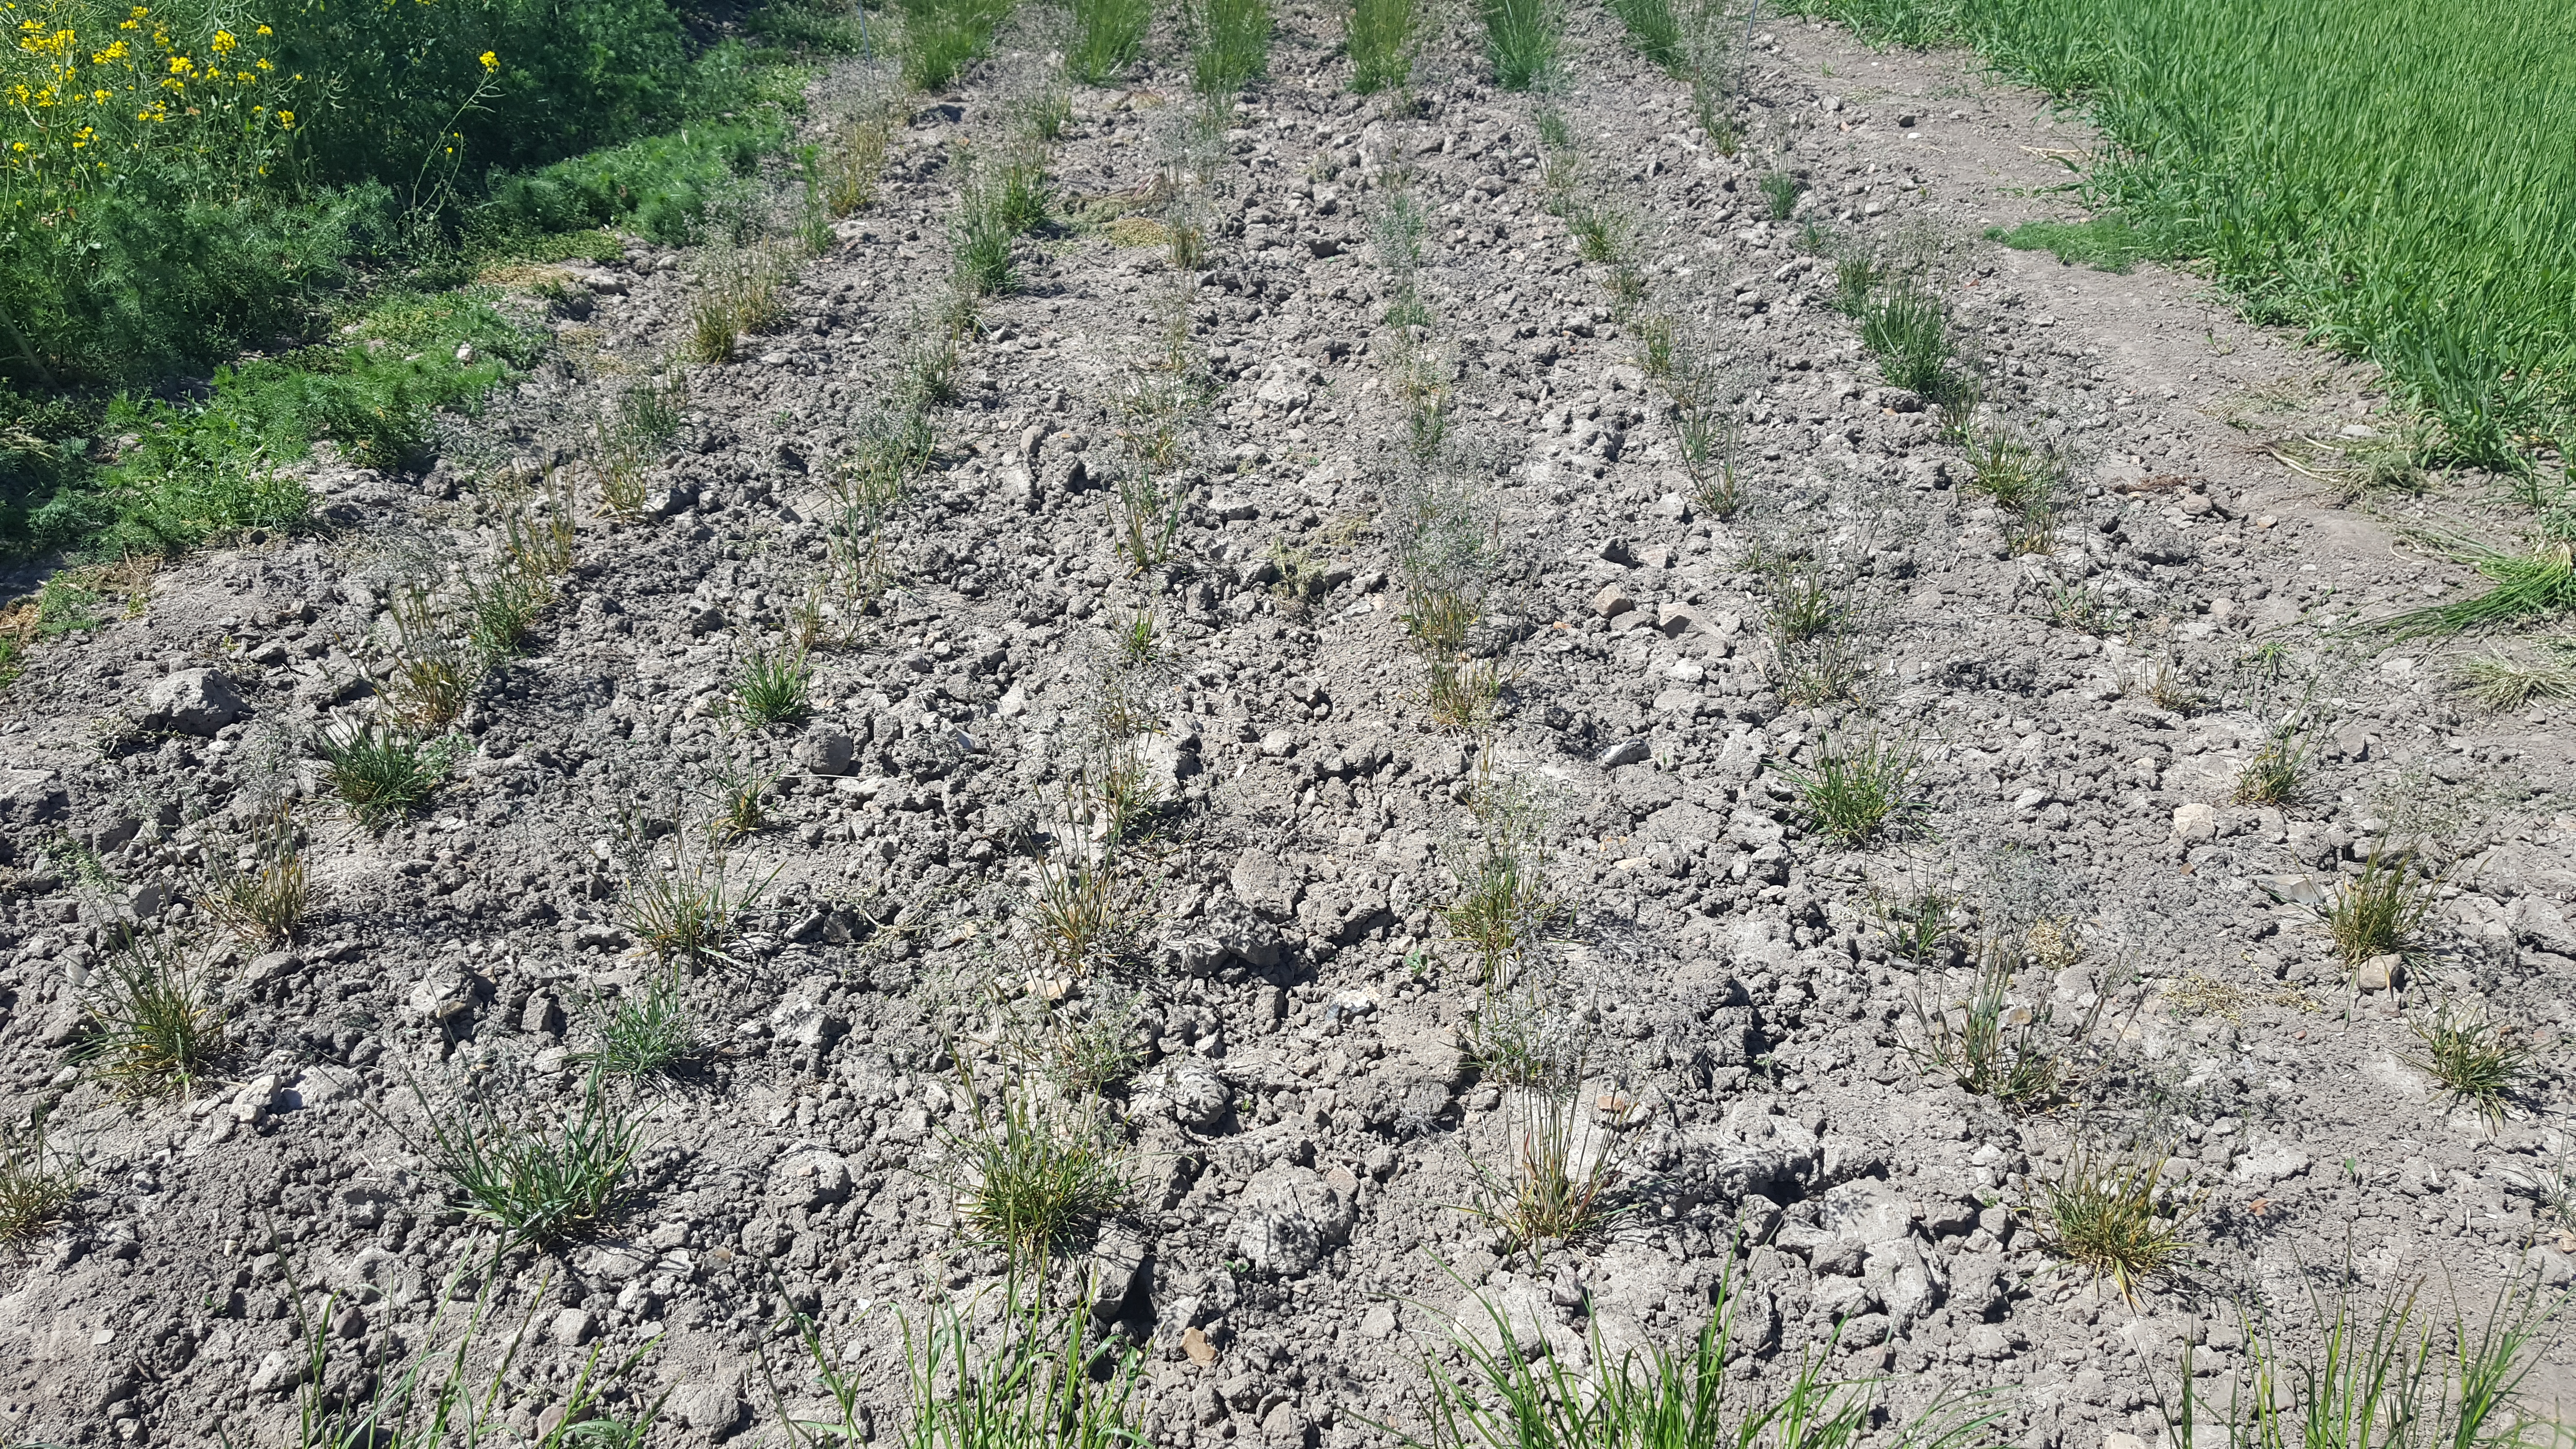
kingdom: Plantae
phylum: Tracheophyta
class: Liliopsida
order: Poales
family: Poaceae
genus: Poa
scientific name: Poa pratensis
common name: Kentucky bluegrass
